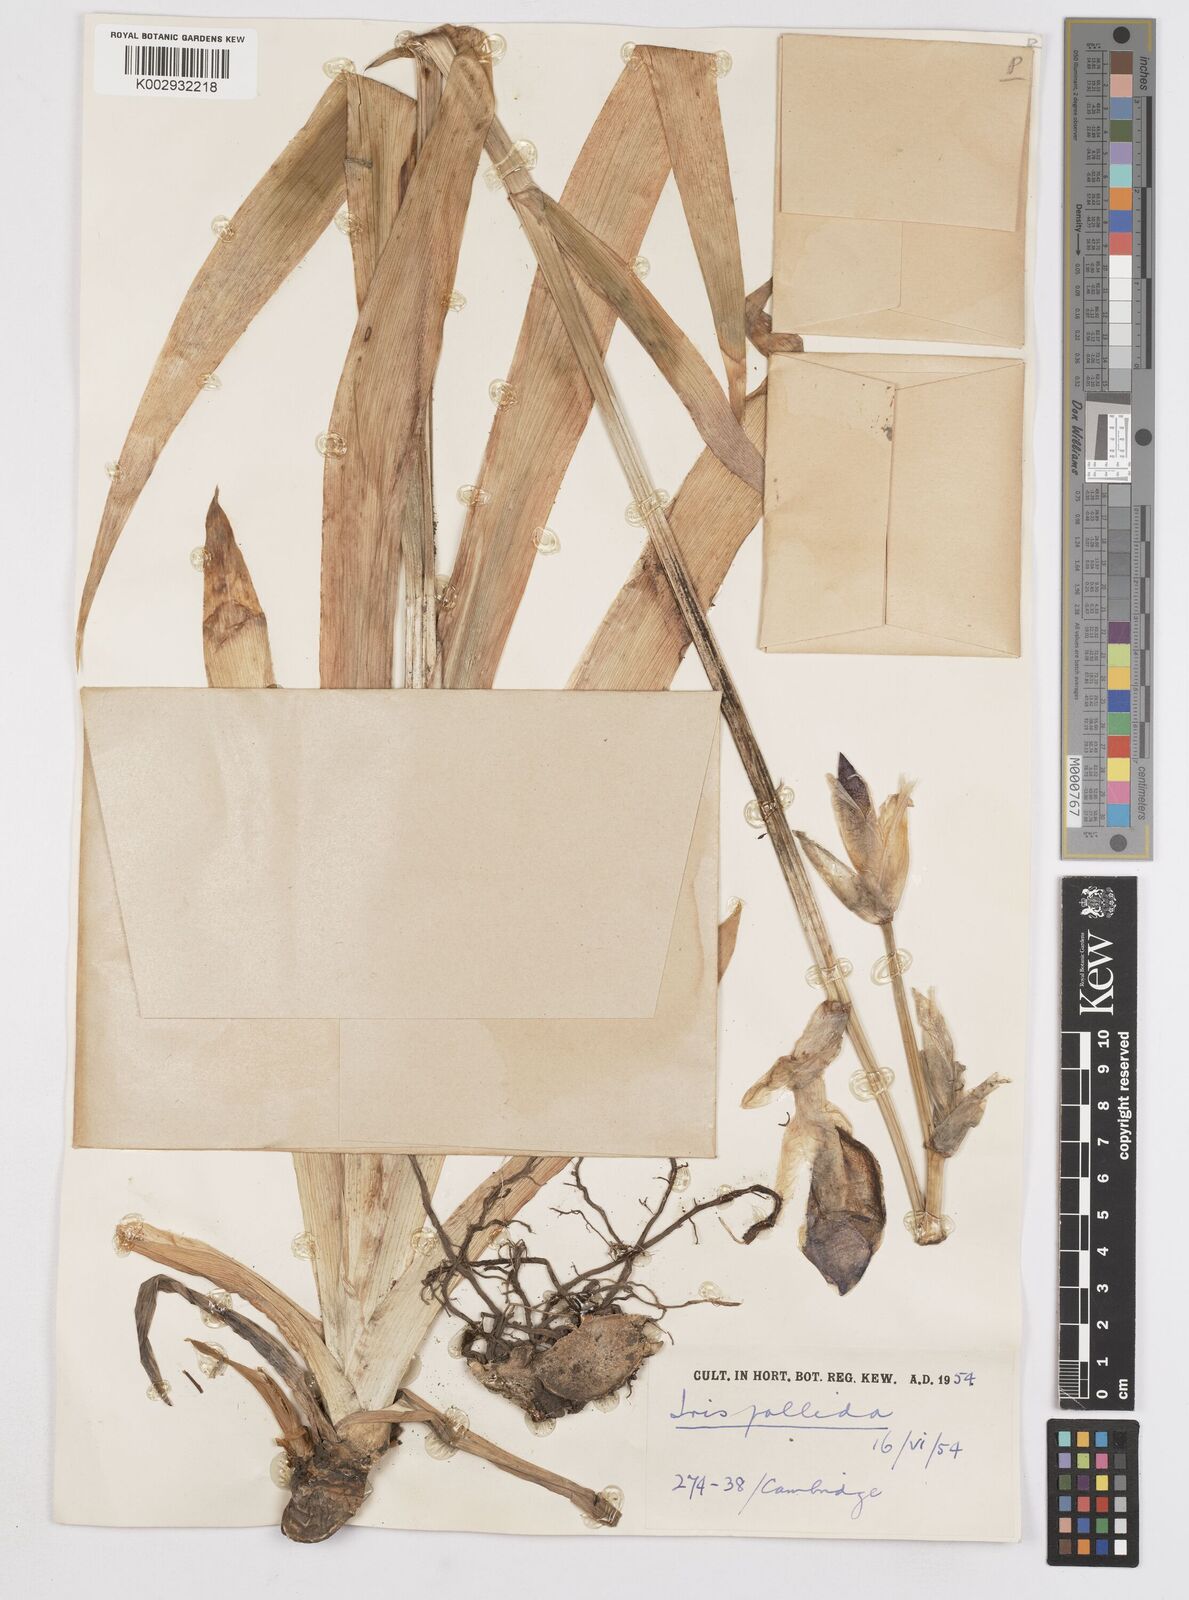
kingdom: Plantae
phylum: Tracheophyta
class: Liliopsida
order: Asparagales
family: Iridaceae
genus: Iris
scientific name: Iris halophila
